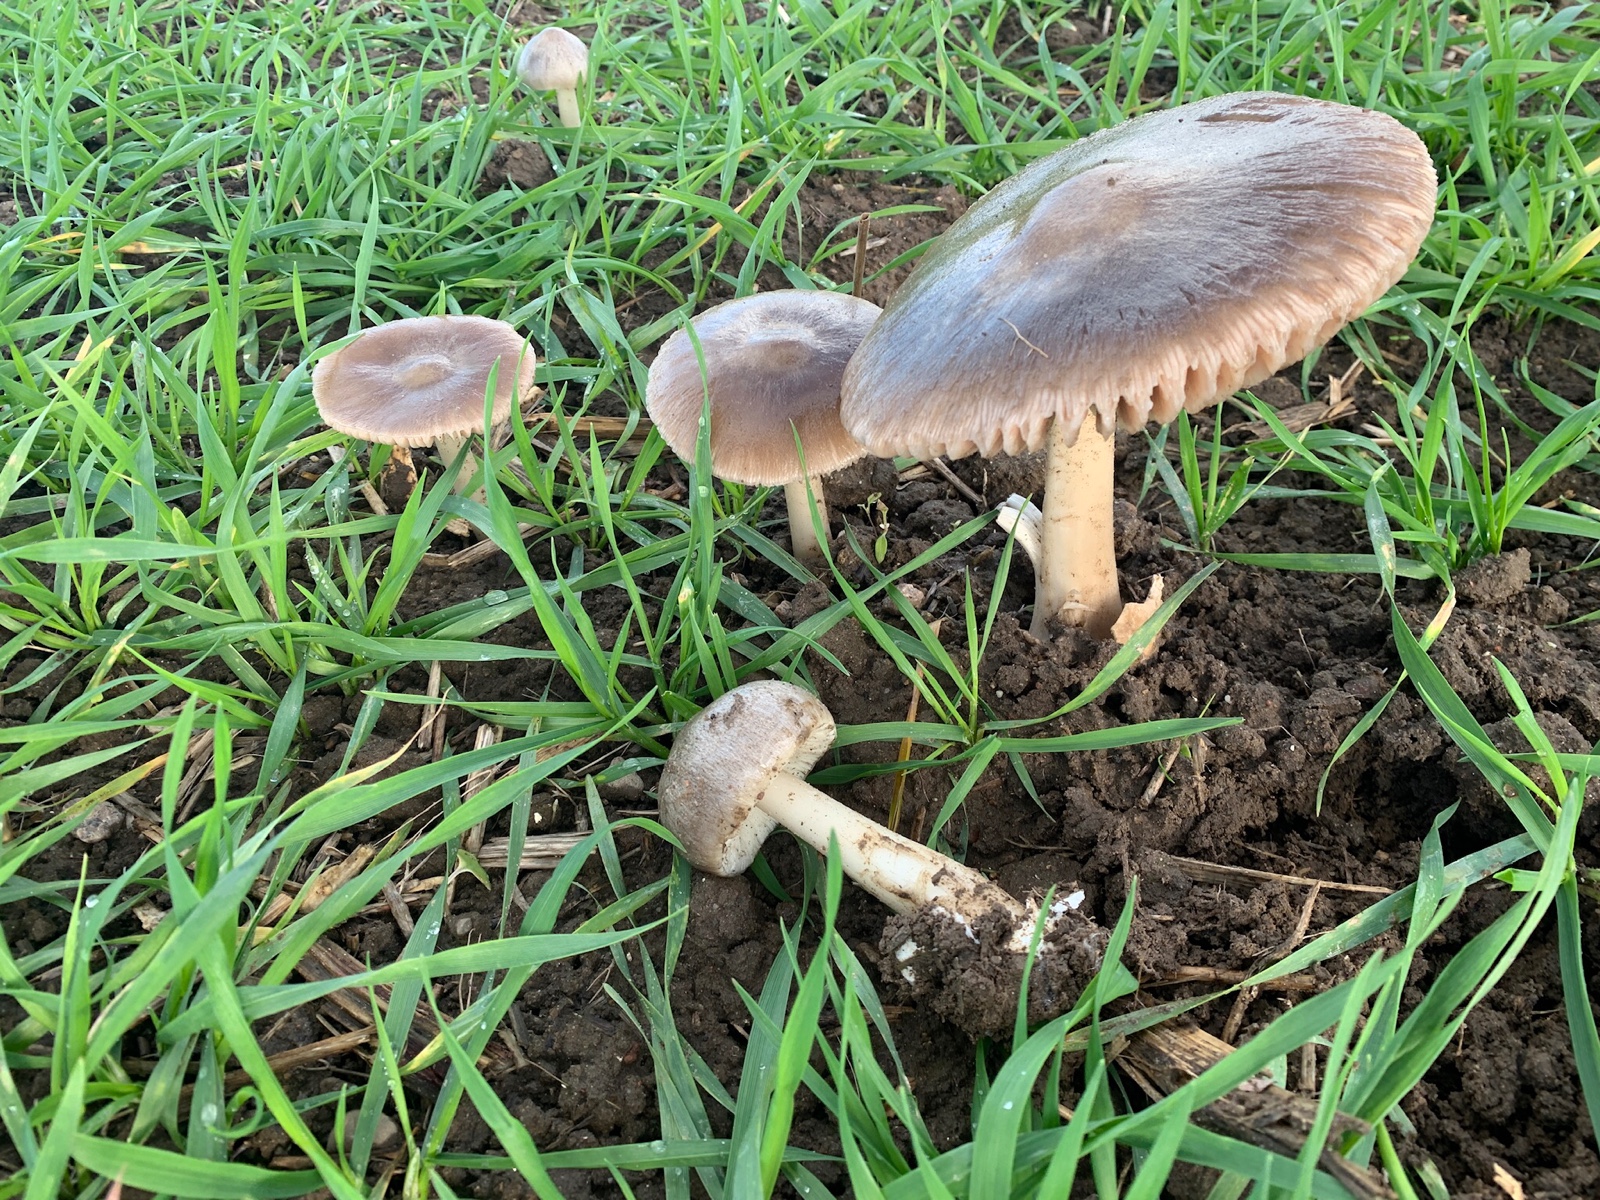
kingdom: Fungi
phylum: Basidiomycota
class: Agaricomycetes
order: Agaricales
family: Pluteaceae
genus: Volvopluteus
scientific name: Volvopluteus gloiocephalus
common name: høj posesvamp
